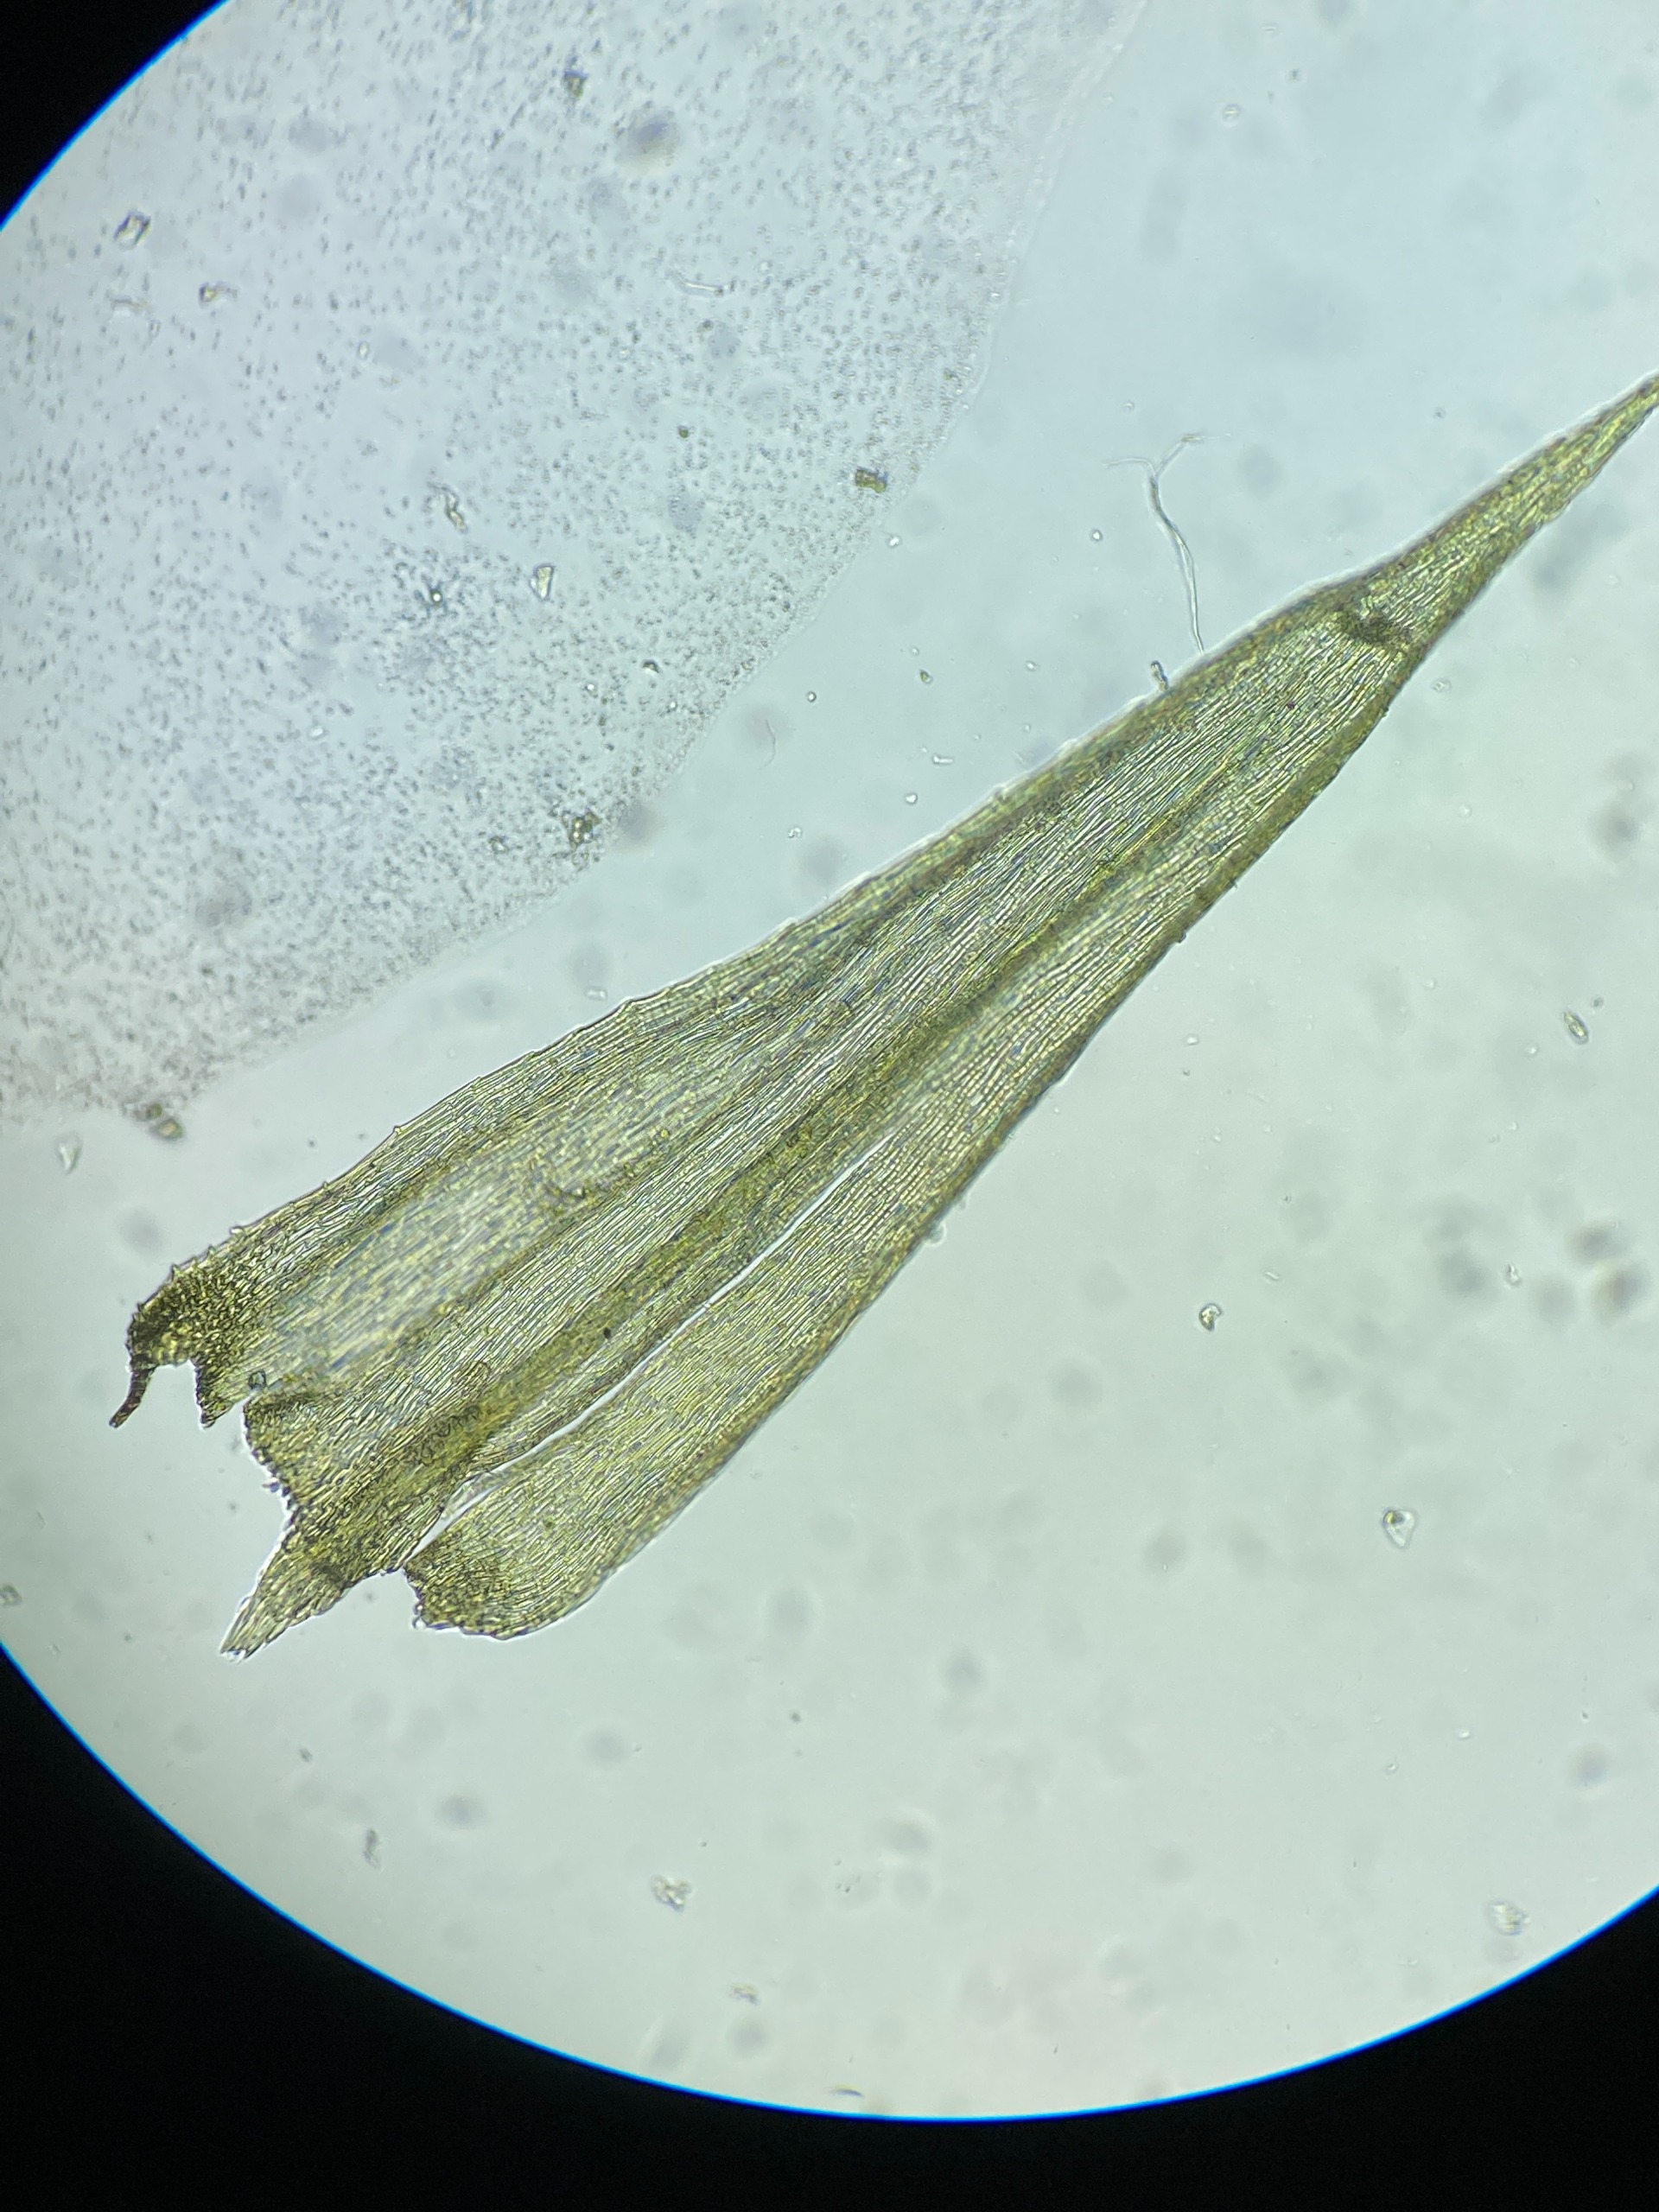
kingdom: Plantae
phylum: Bryophyta
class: Bryopsida
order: Hypnales
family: Brachytheciaceae
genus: Homalothecium
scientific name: Homalothecium sericeum
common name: Krybende silkemos
